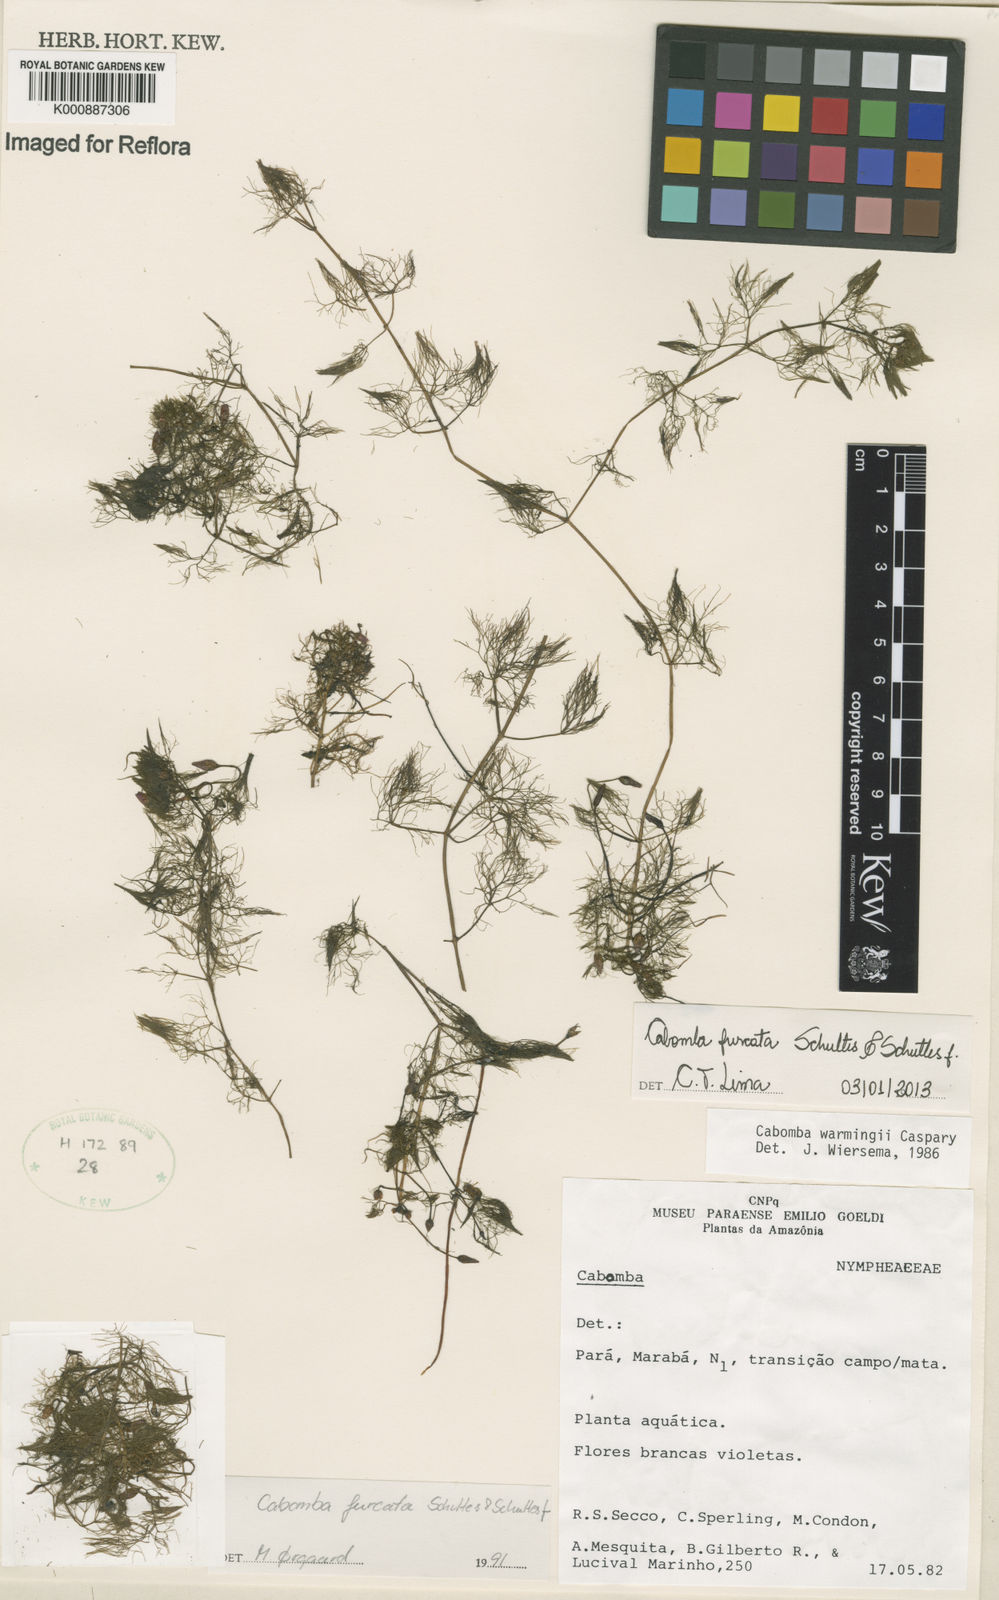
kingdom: Plantae
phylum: Tracheophyta
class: Magnoliopsida
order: Nymphaeales
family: Cabombaceae
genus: Cabomba
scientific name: Cabomba furcata
